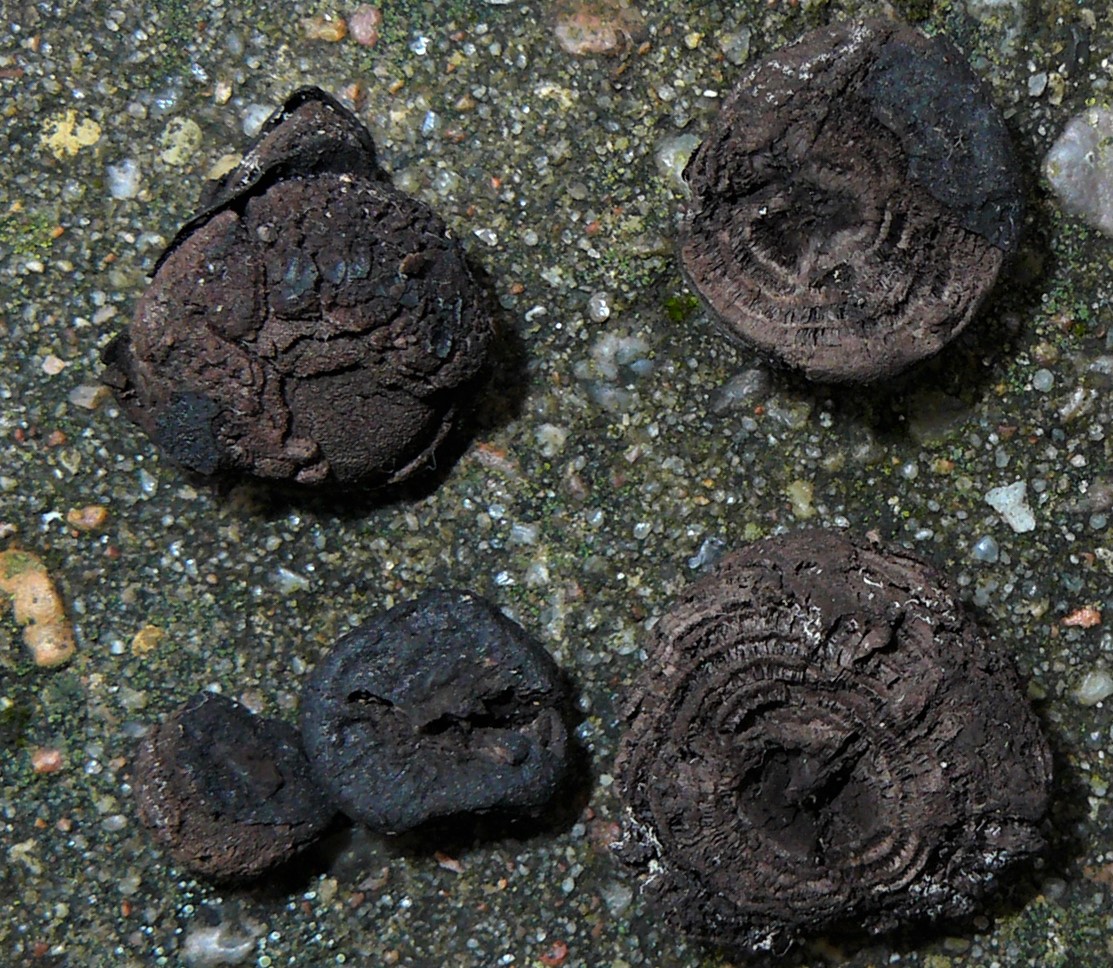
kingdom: Fungi
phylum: Ascomycota
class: Sordariomycetes
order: Xylariales
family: Hypoxylaceae
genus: Daldinia
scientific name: Daldinia
